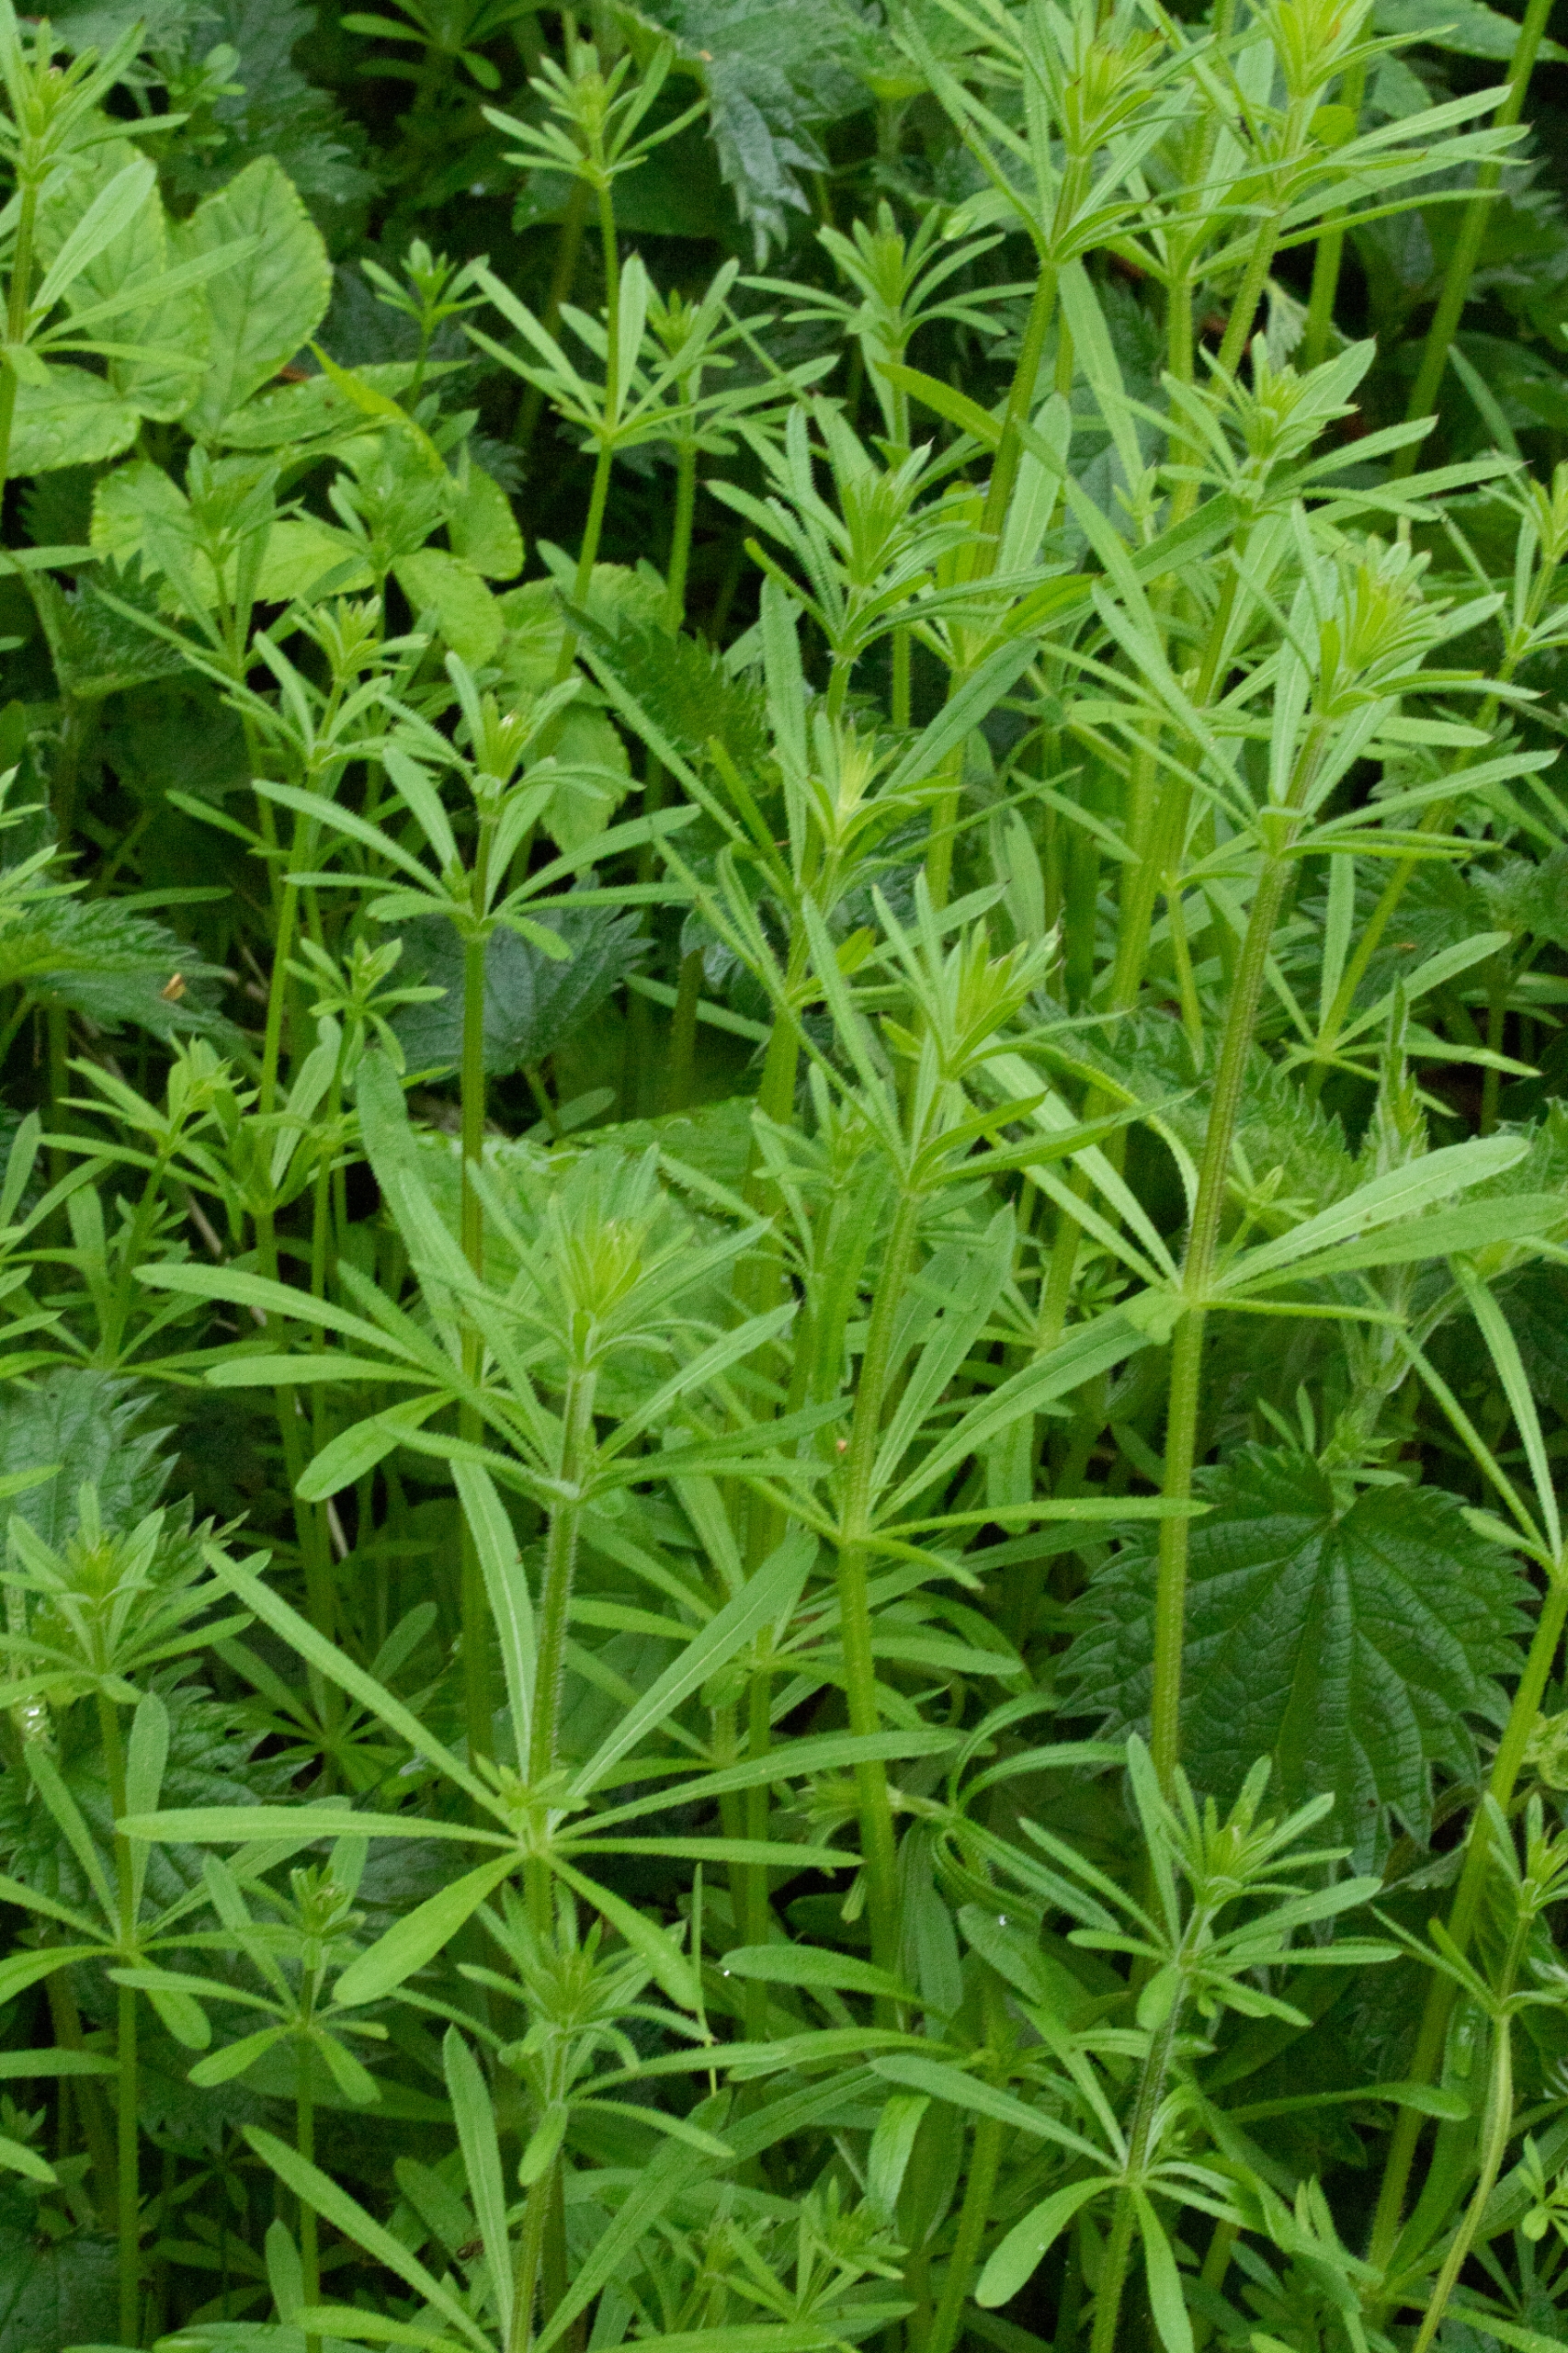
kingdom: Plantae
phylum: Tracheophyta
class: Magnoliopsida
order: Gentianales
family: Rubiaceae
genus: Galium
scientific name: Galium aparine
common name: Burre-snerre
